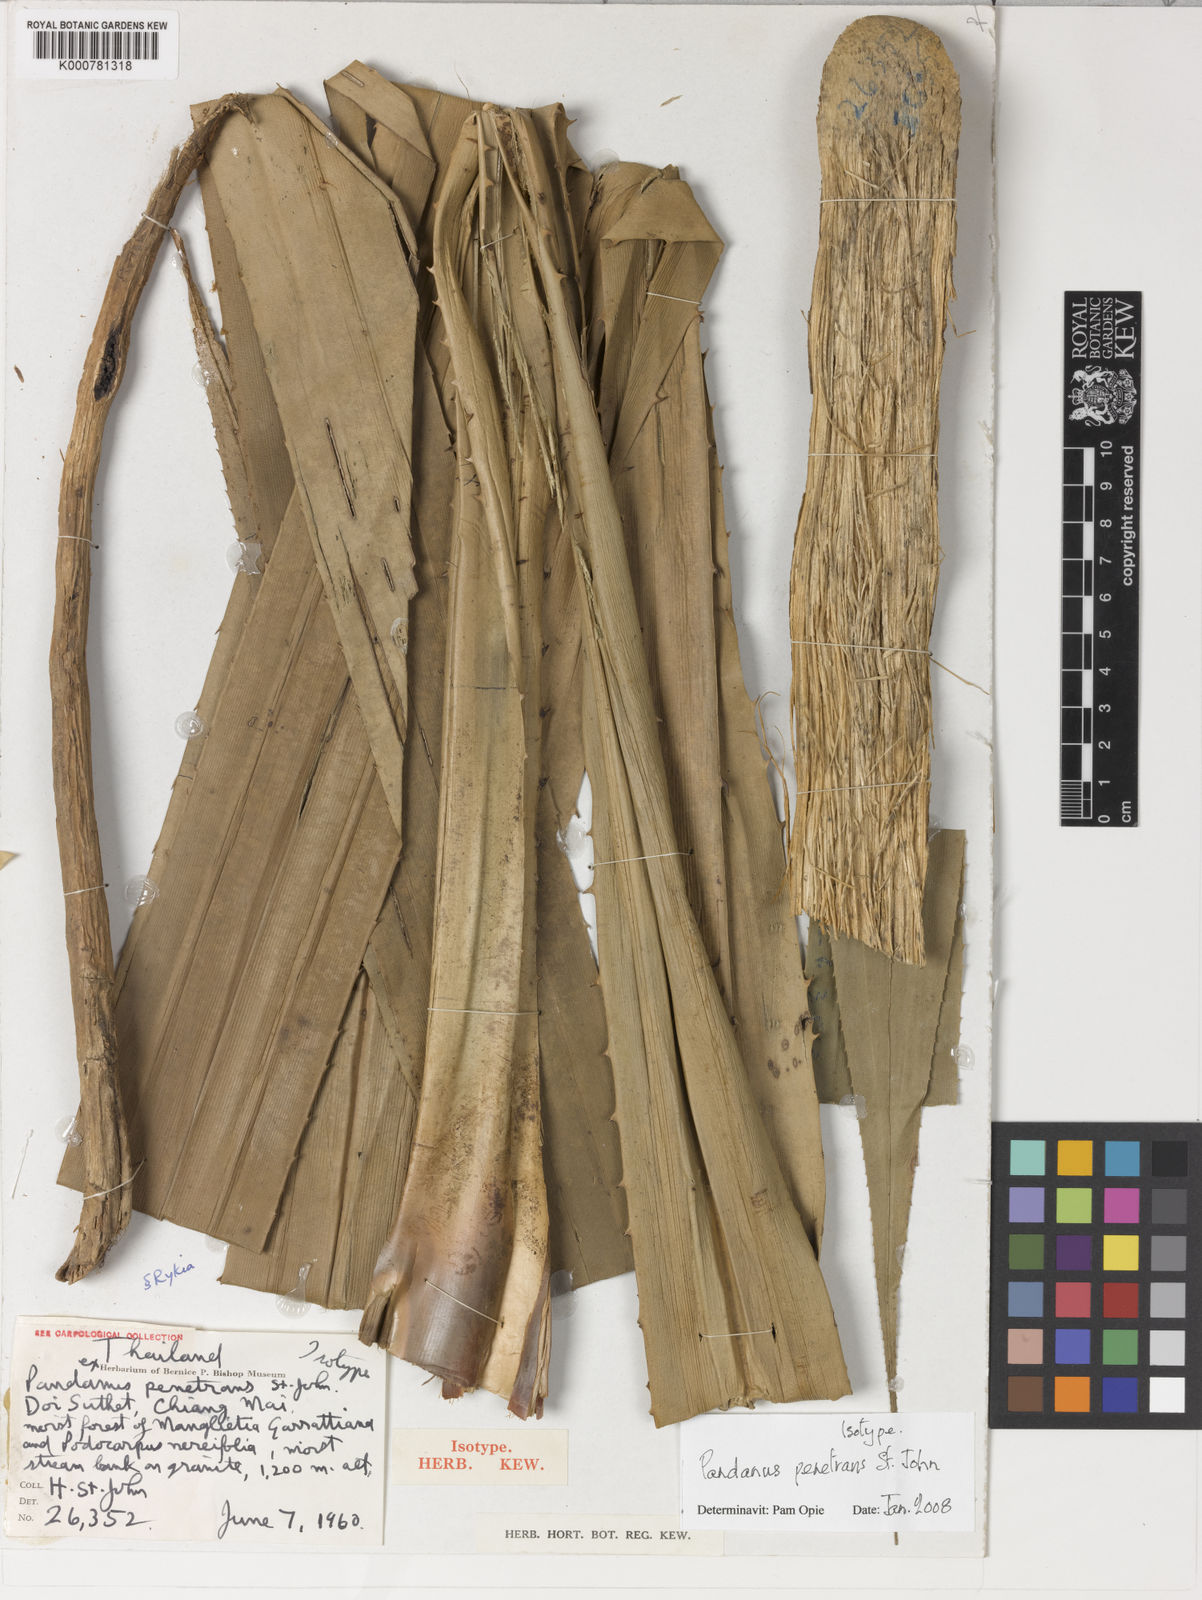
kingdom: Plantae
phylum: Tracheophyta
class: Liliopsida
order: Pandanales
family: Pandanaceae
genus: Pandanus
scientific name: Pandanus penetrans
